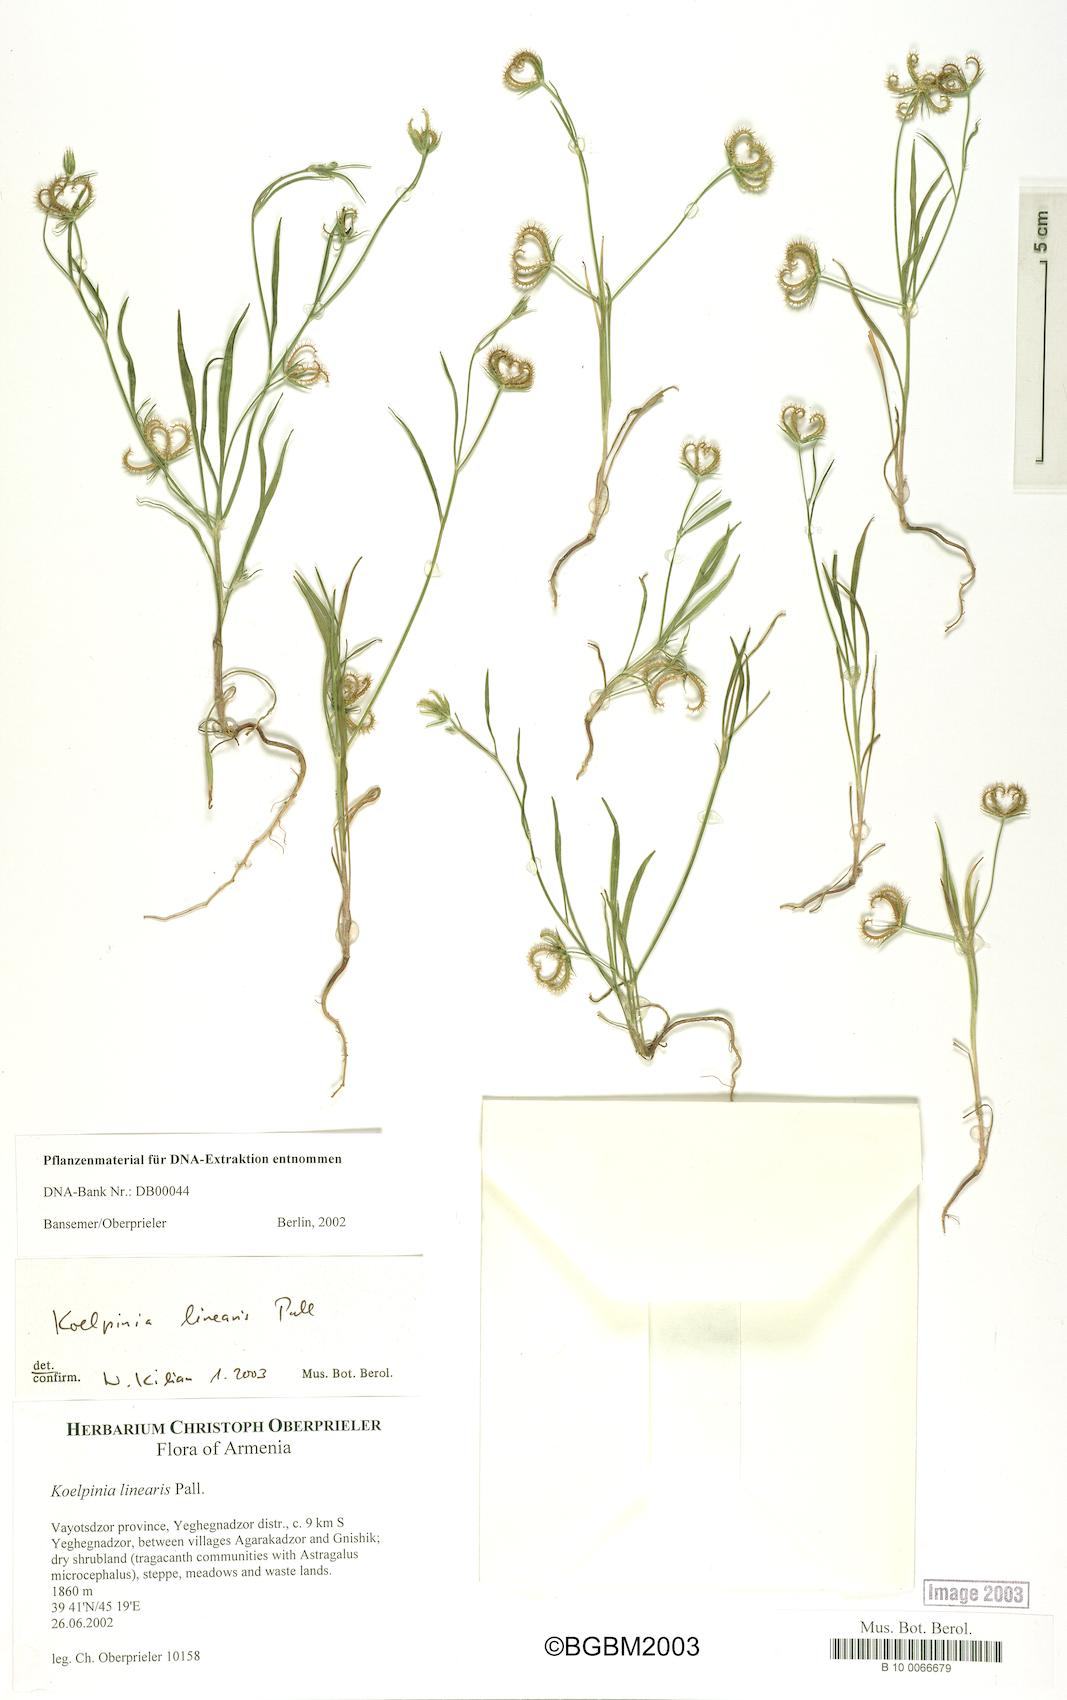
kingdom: Plantae
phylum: Tracheophyta
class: Magnoliopsida
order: Asterales
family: Asteraceae
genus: Koelpinia
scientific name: Koelpinia linearis
